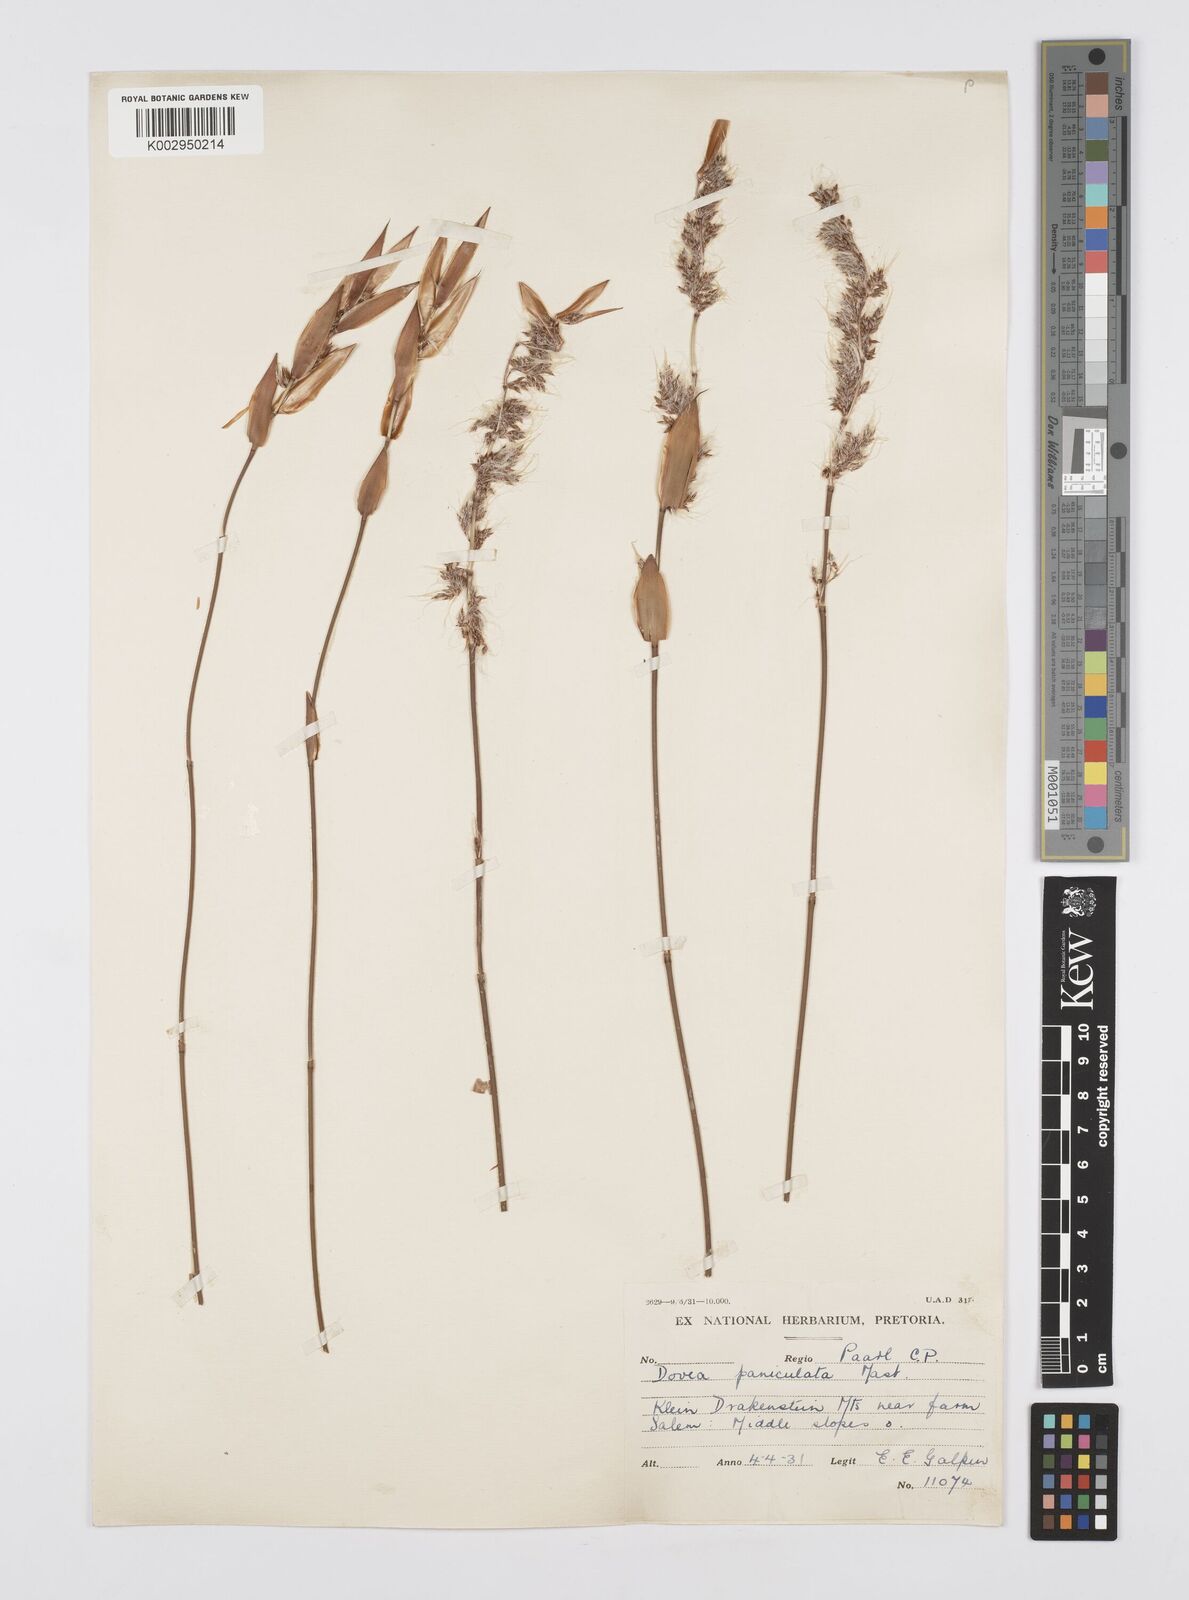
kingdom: Plantae
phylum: Tracheophyta
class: Liliopsida
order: Poales
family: Restionaceae
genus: Askidiosperma
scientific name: Askidiosperma paniculatum
